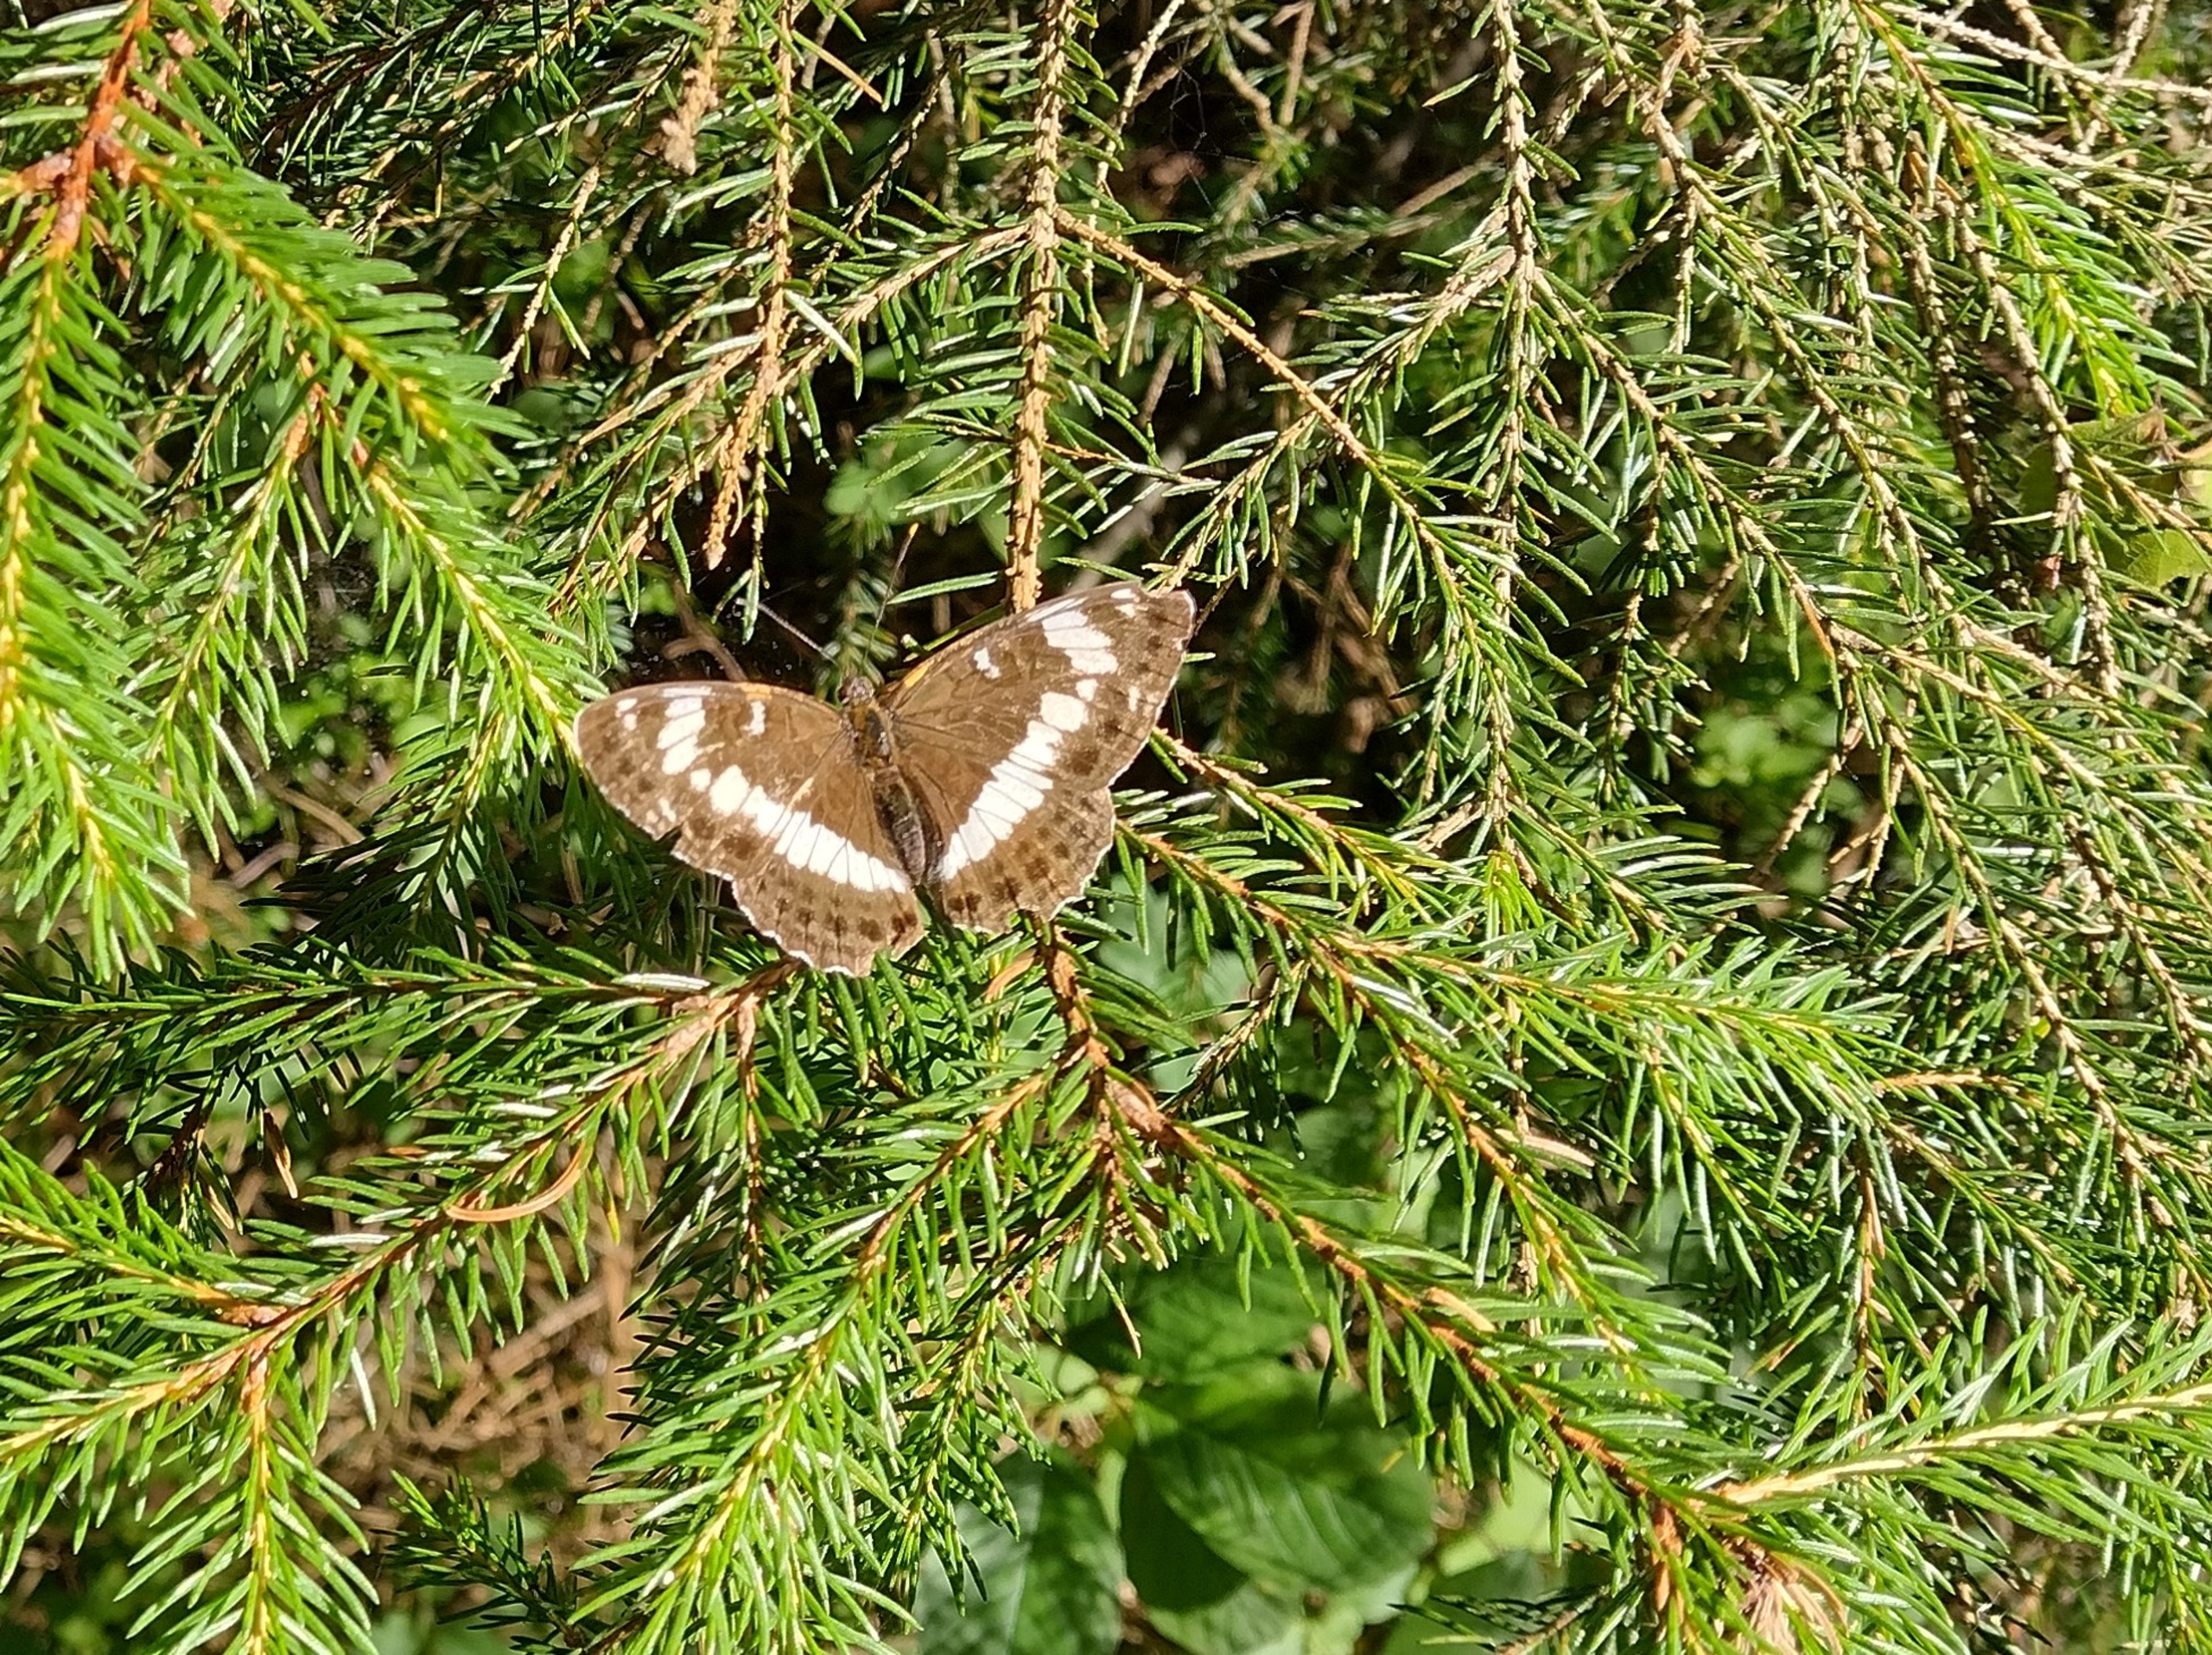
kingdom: Animalia
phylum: Arthropoda
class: Insecta
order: Lepidoptera
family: Nymphalidae
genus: Ladoga
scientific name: Ladoga camilla
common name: Hvid admiral
